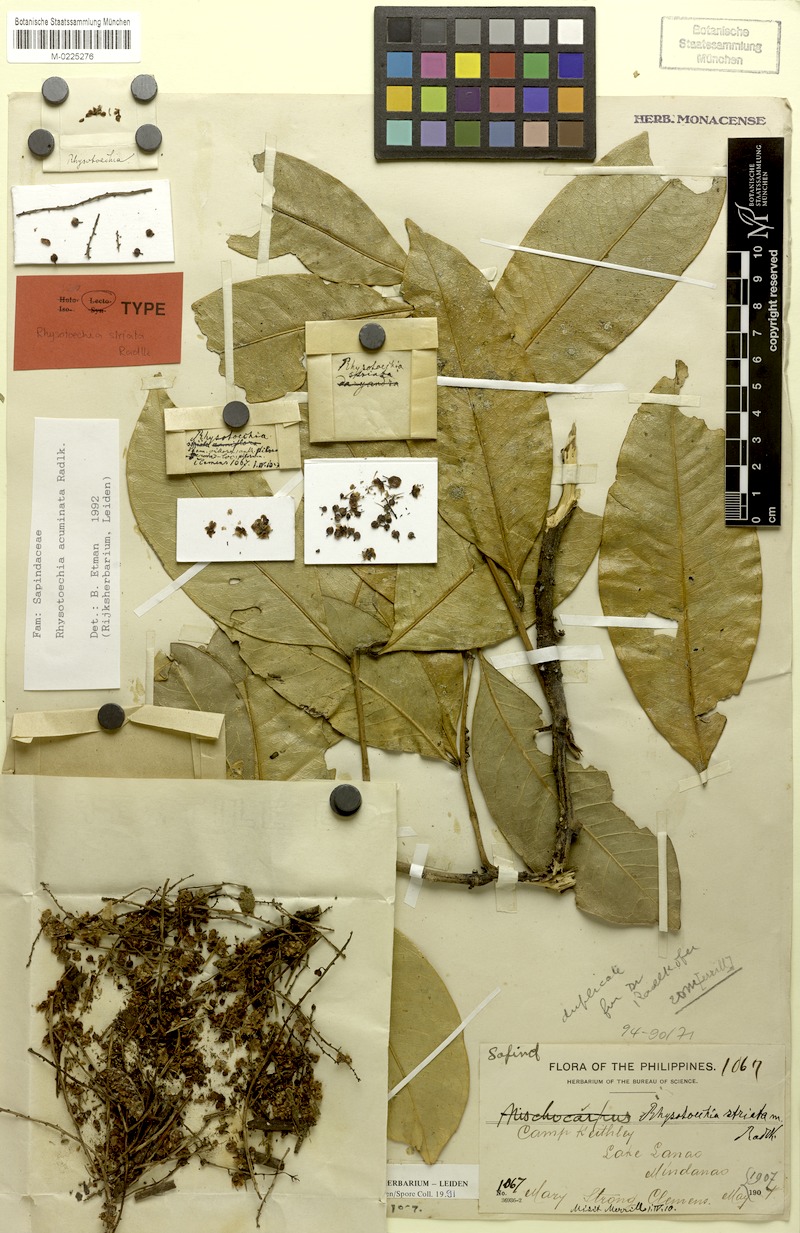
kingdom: Plantae
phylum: Tracheophyta
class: Magnoliopsida
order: Sapindales
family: Sapindaceae
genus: Rhysotoechia
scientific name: Rhysotoechia ramiflora
